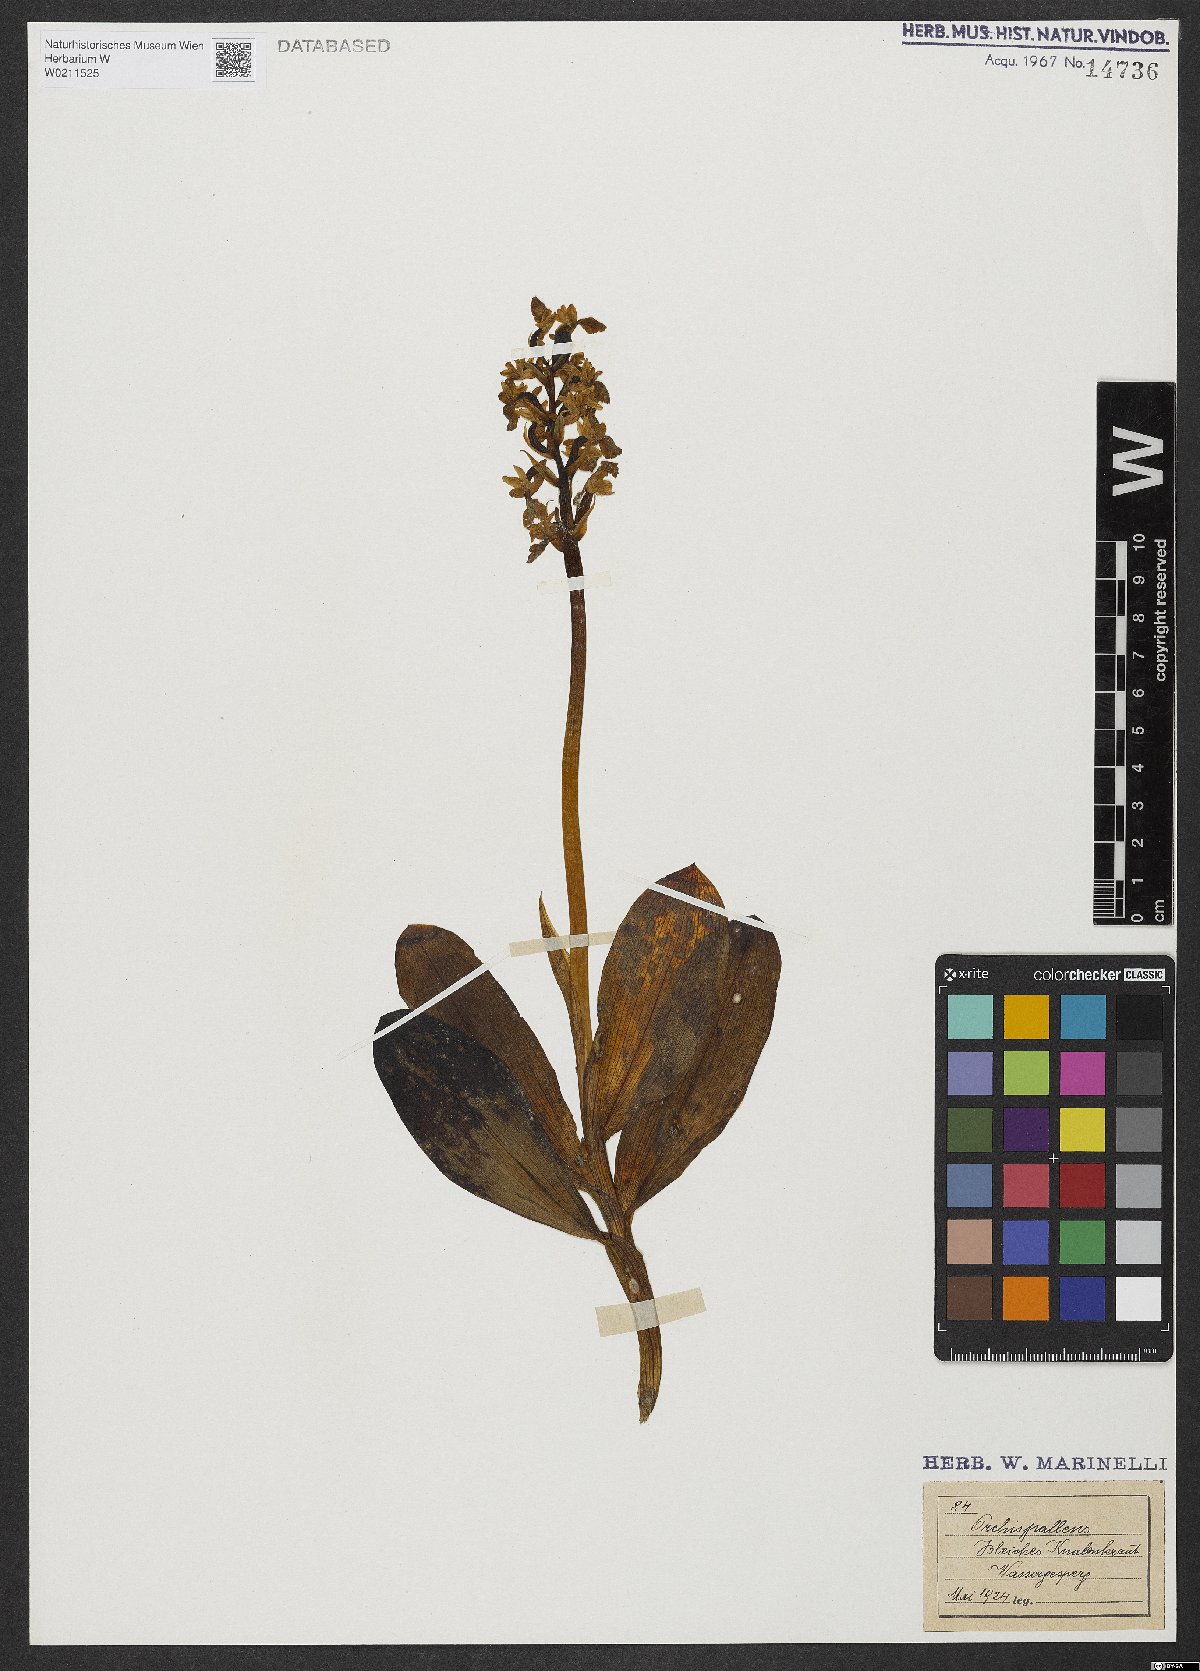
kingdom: Plantae
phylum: Tracheophyta
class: Liliopsida
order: Asparagales
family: Orchidaceae
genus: Orchis
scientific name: Orchis pallens
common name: Pale-flowered orchid
